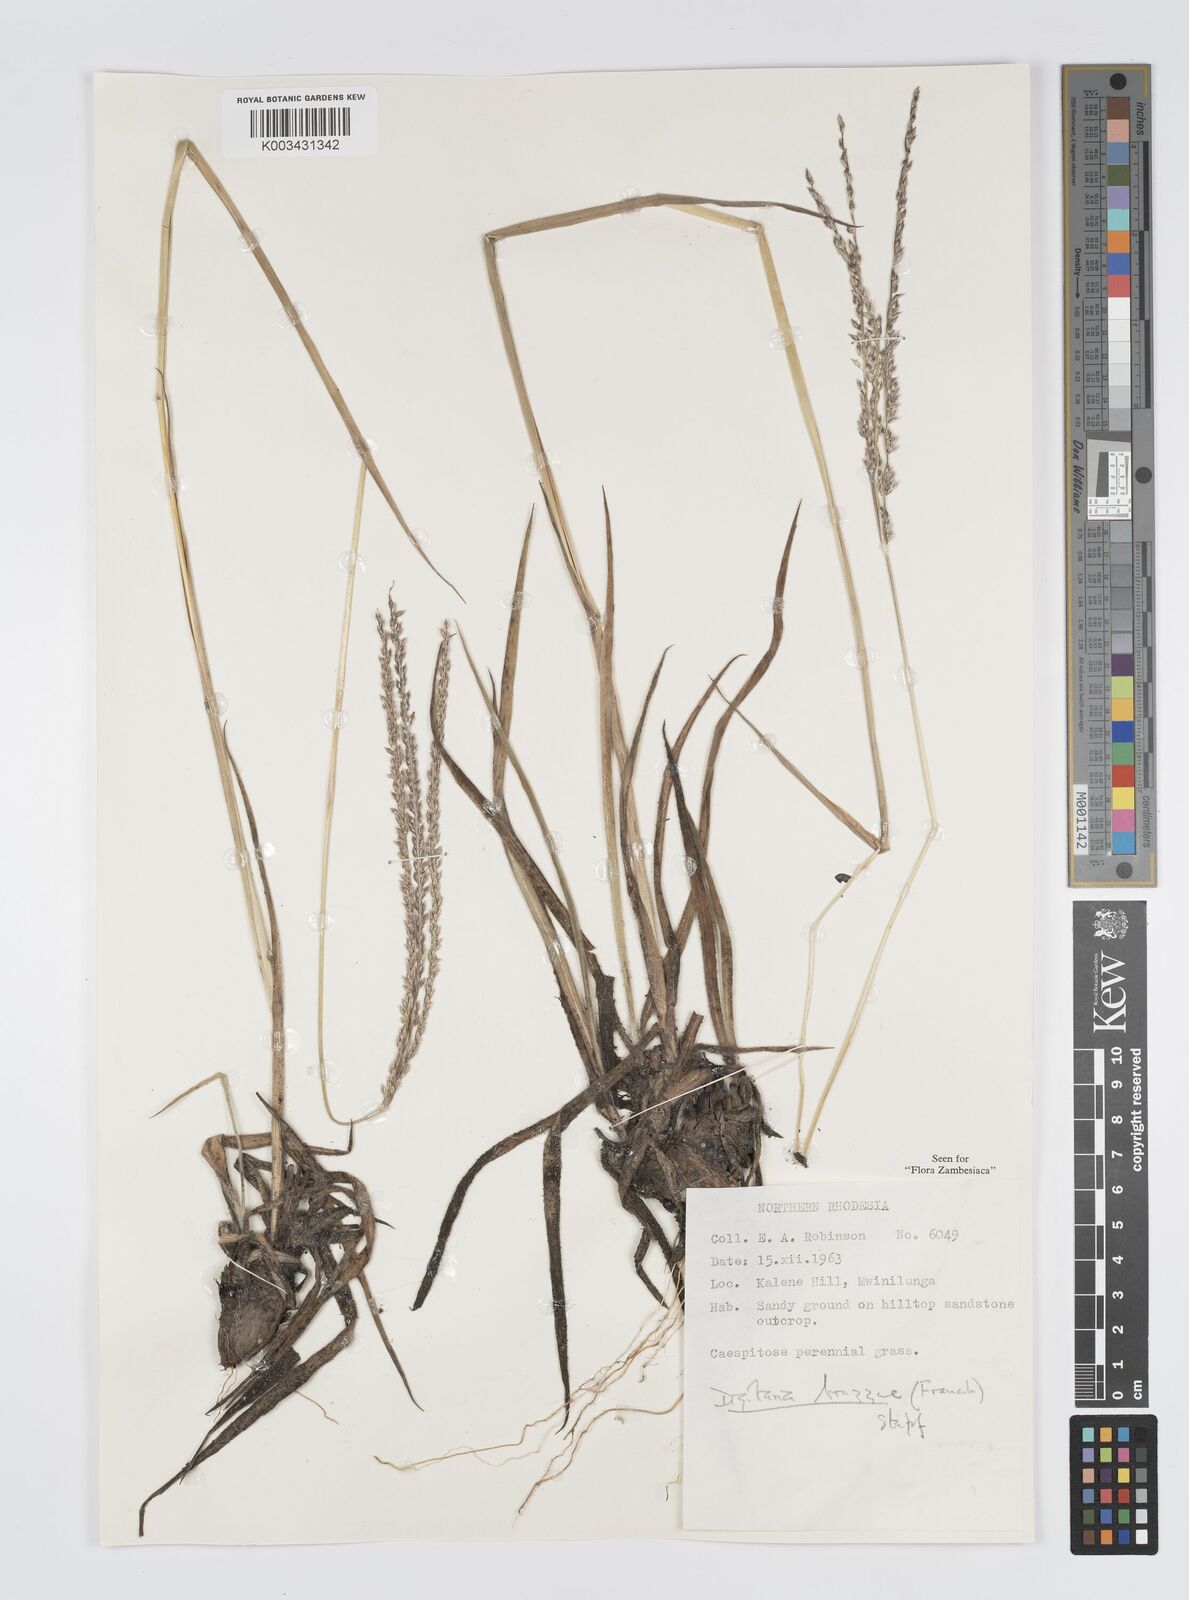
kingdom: Plantae
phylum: Tracheophyta
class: Liliopsida
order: Poales
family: Poaceae
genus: Digitaria
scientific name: Digitaria brazzae
